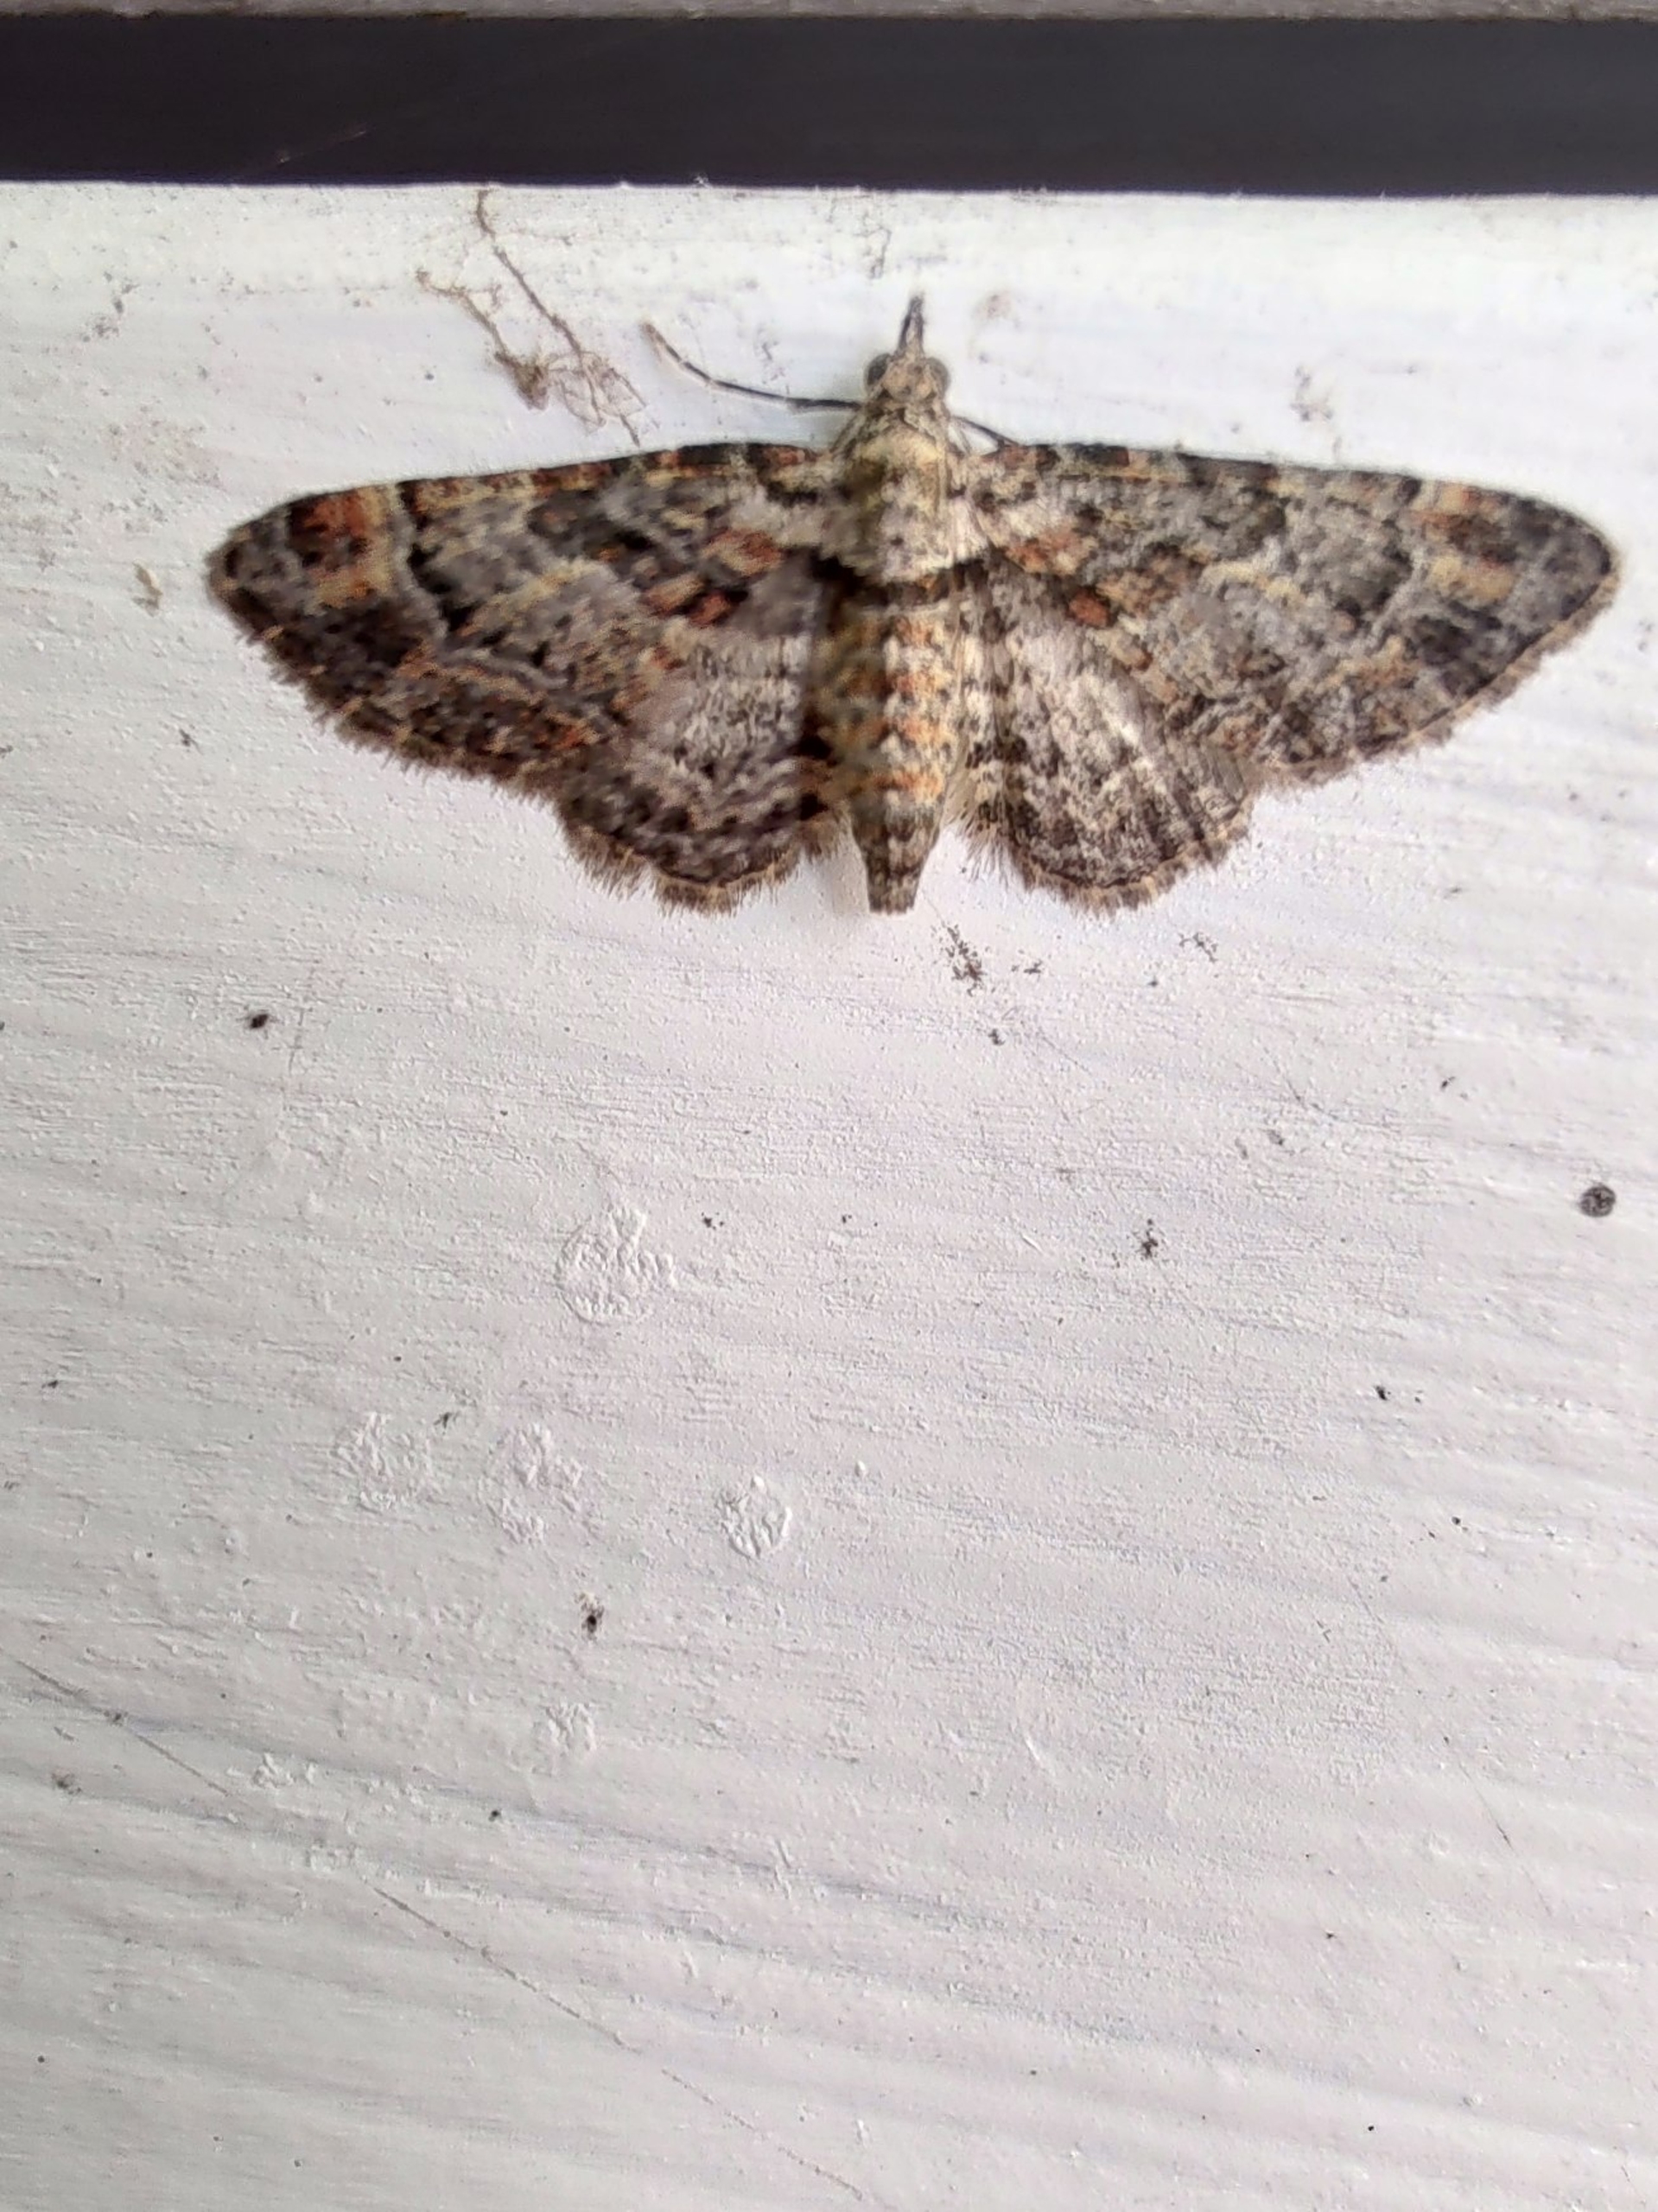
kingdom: Animalia
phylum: Arthropoda
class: Insecta
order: Lepidoptera
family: Geometridae
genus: Gymnoscelis
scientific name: Gymnoscelis rufifasciata
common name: Rødbåndet dværgmåler
